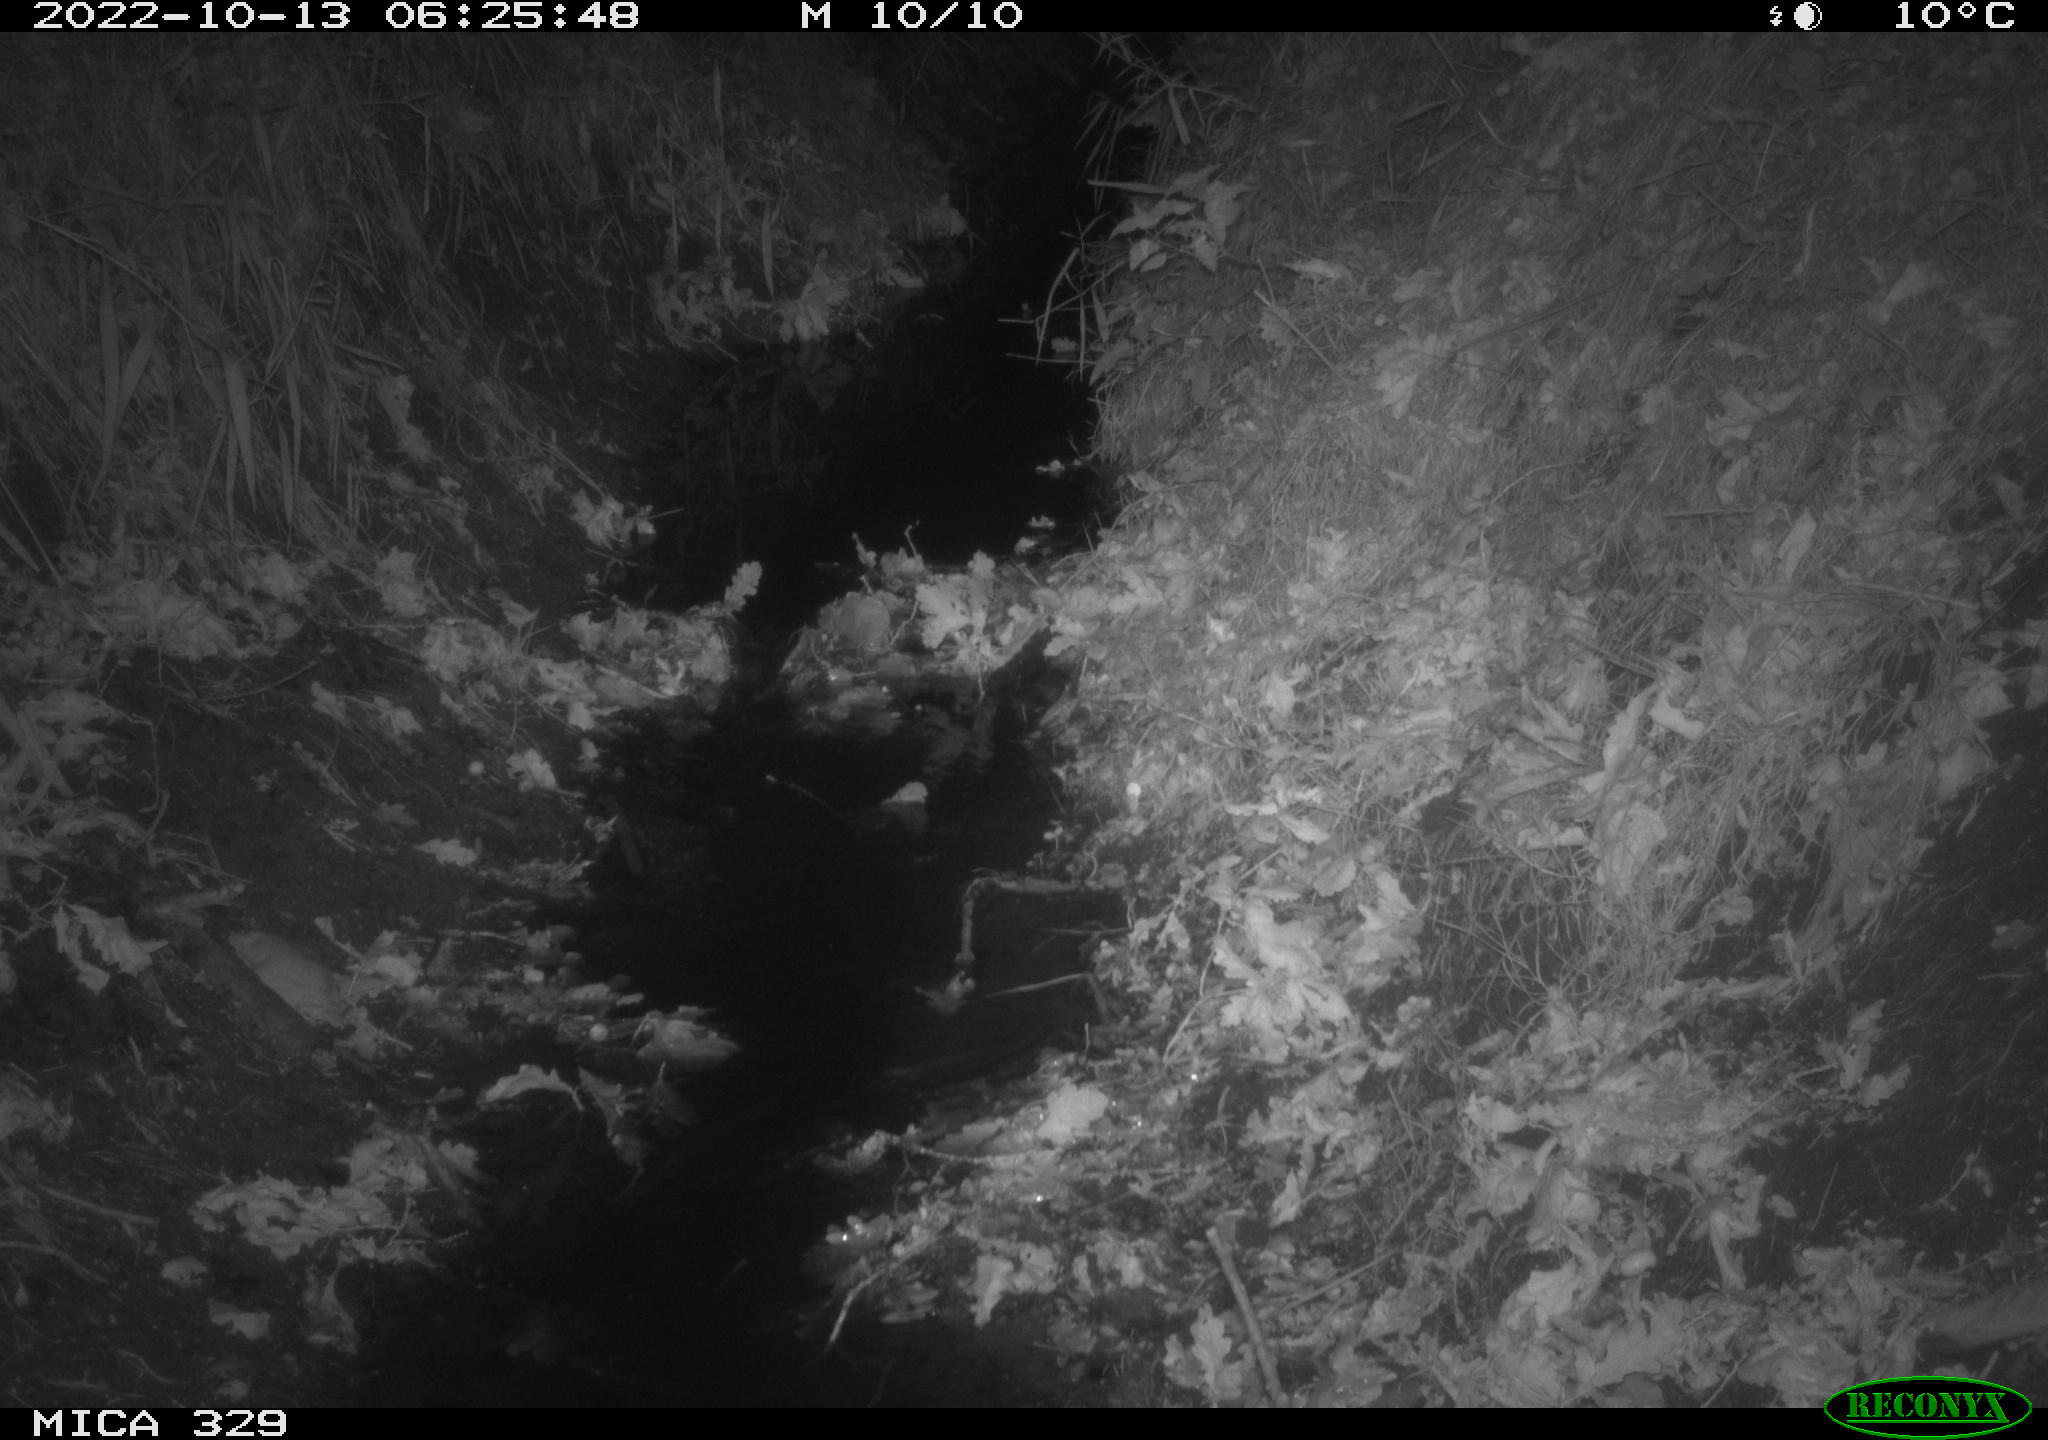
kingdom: Animalia
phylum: Chordata
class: Mammalia
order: Rodentia
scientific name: Rodentia
